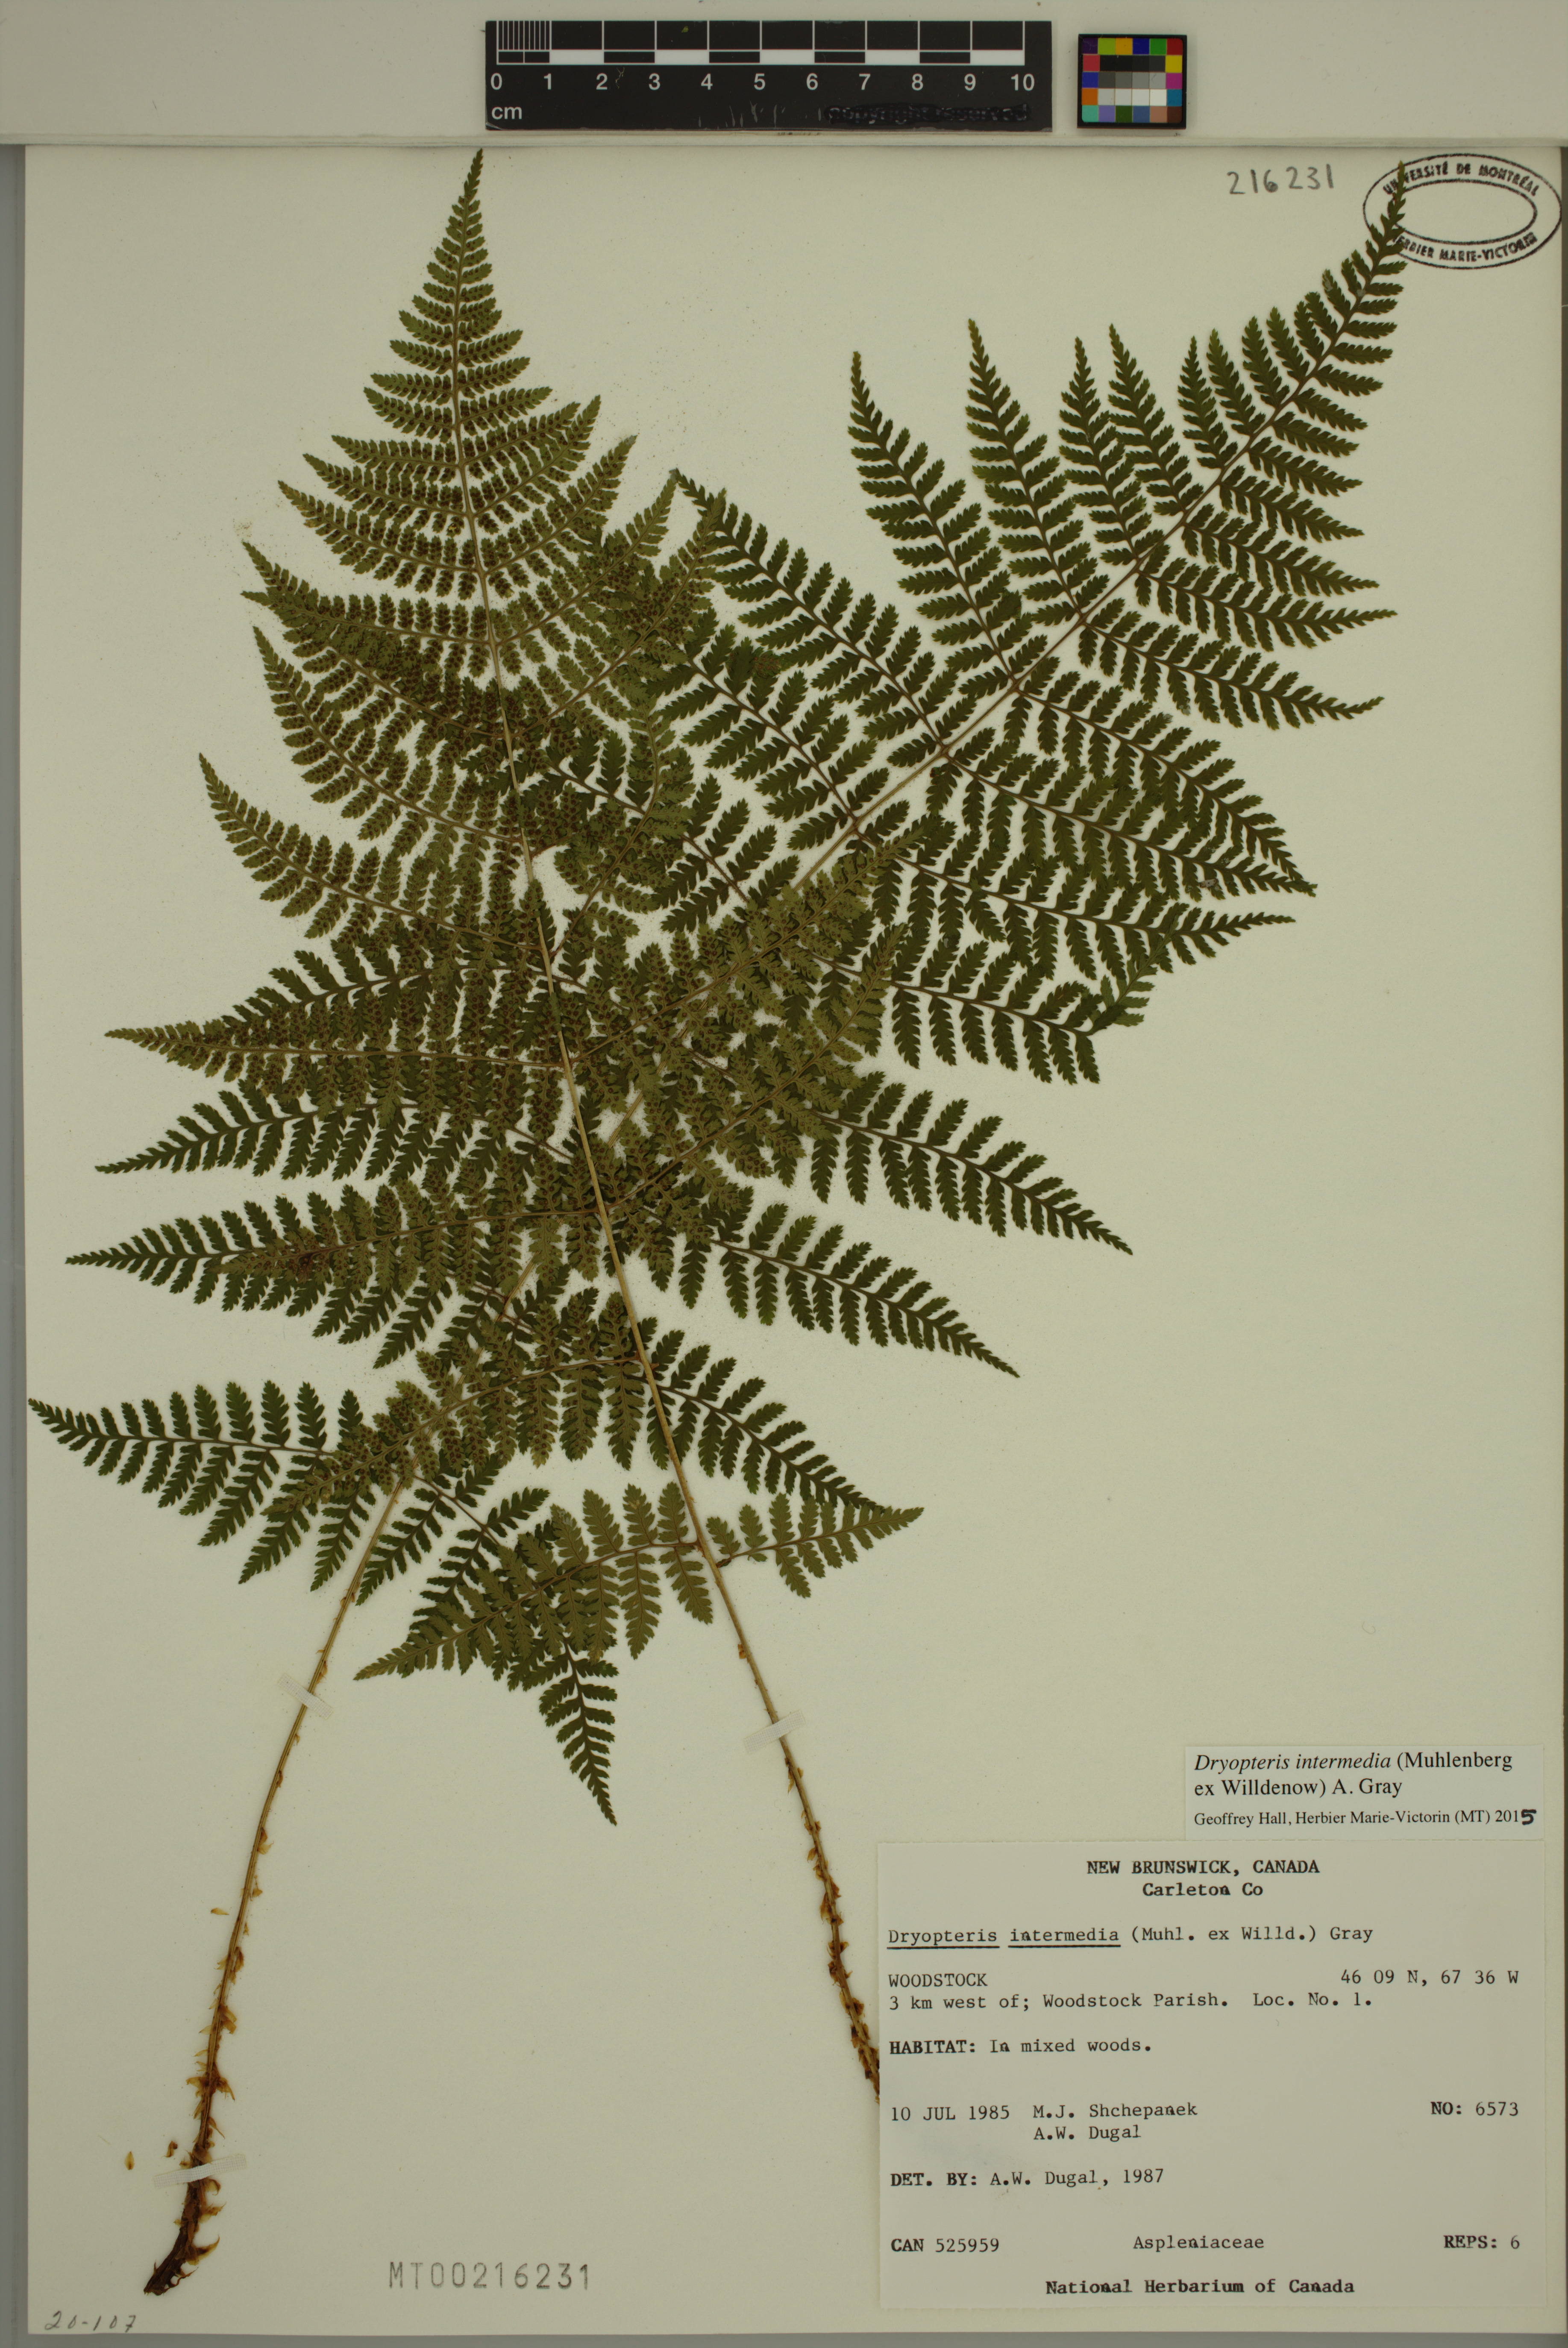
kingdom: Plantae
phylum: Tracheophyta
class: Polypodiopsida
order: Polypodiales
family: Dryopteridaceae
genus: Dryopteris
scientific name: Dryopteris intermedia
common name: Evergreen wood fern
